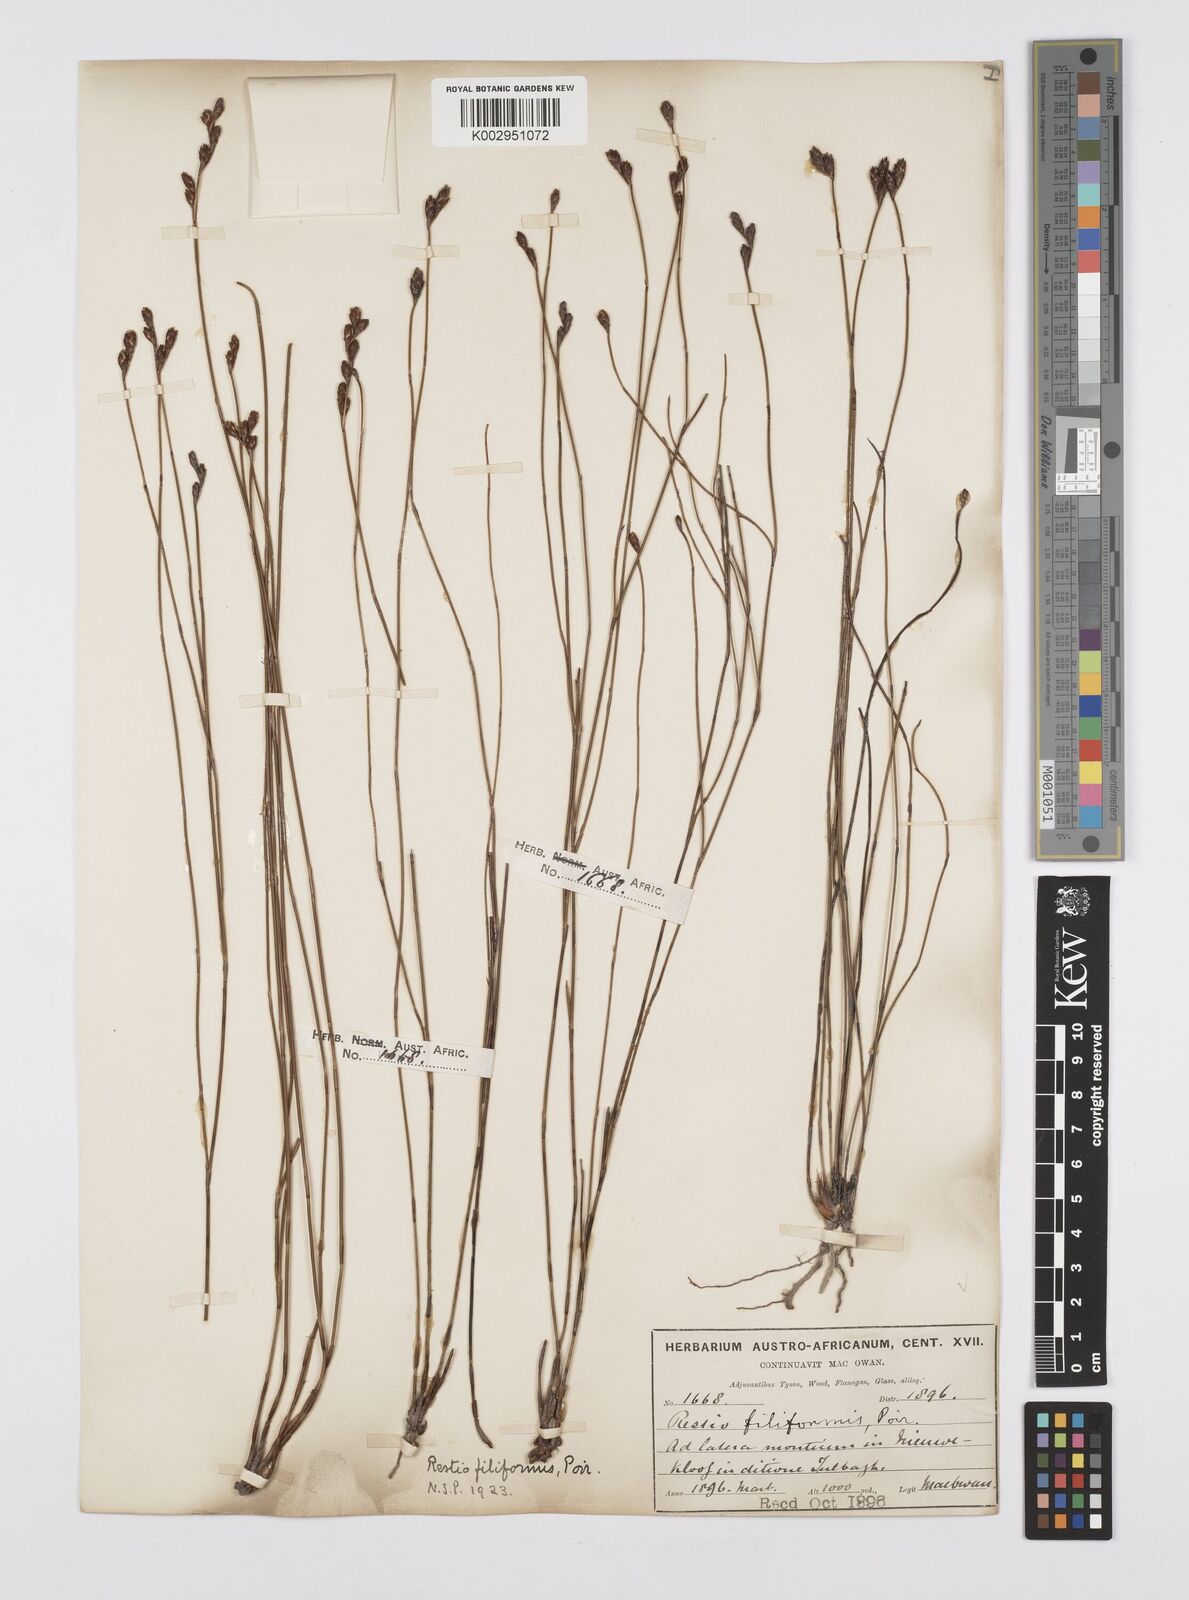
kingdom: Plantae
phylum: Tracheophyta
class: Liliopsida
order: Poales
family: Restionaceae
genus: Restio
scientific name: Restio filiformis
